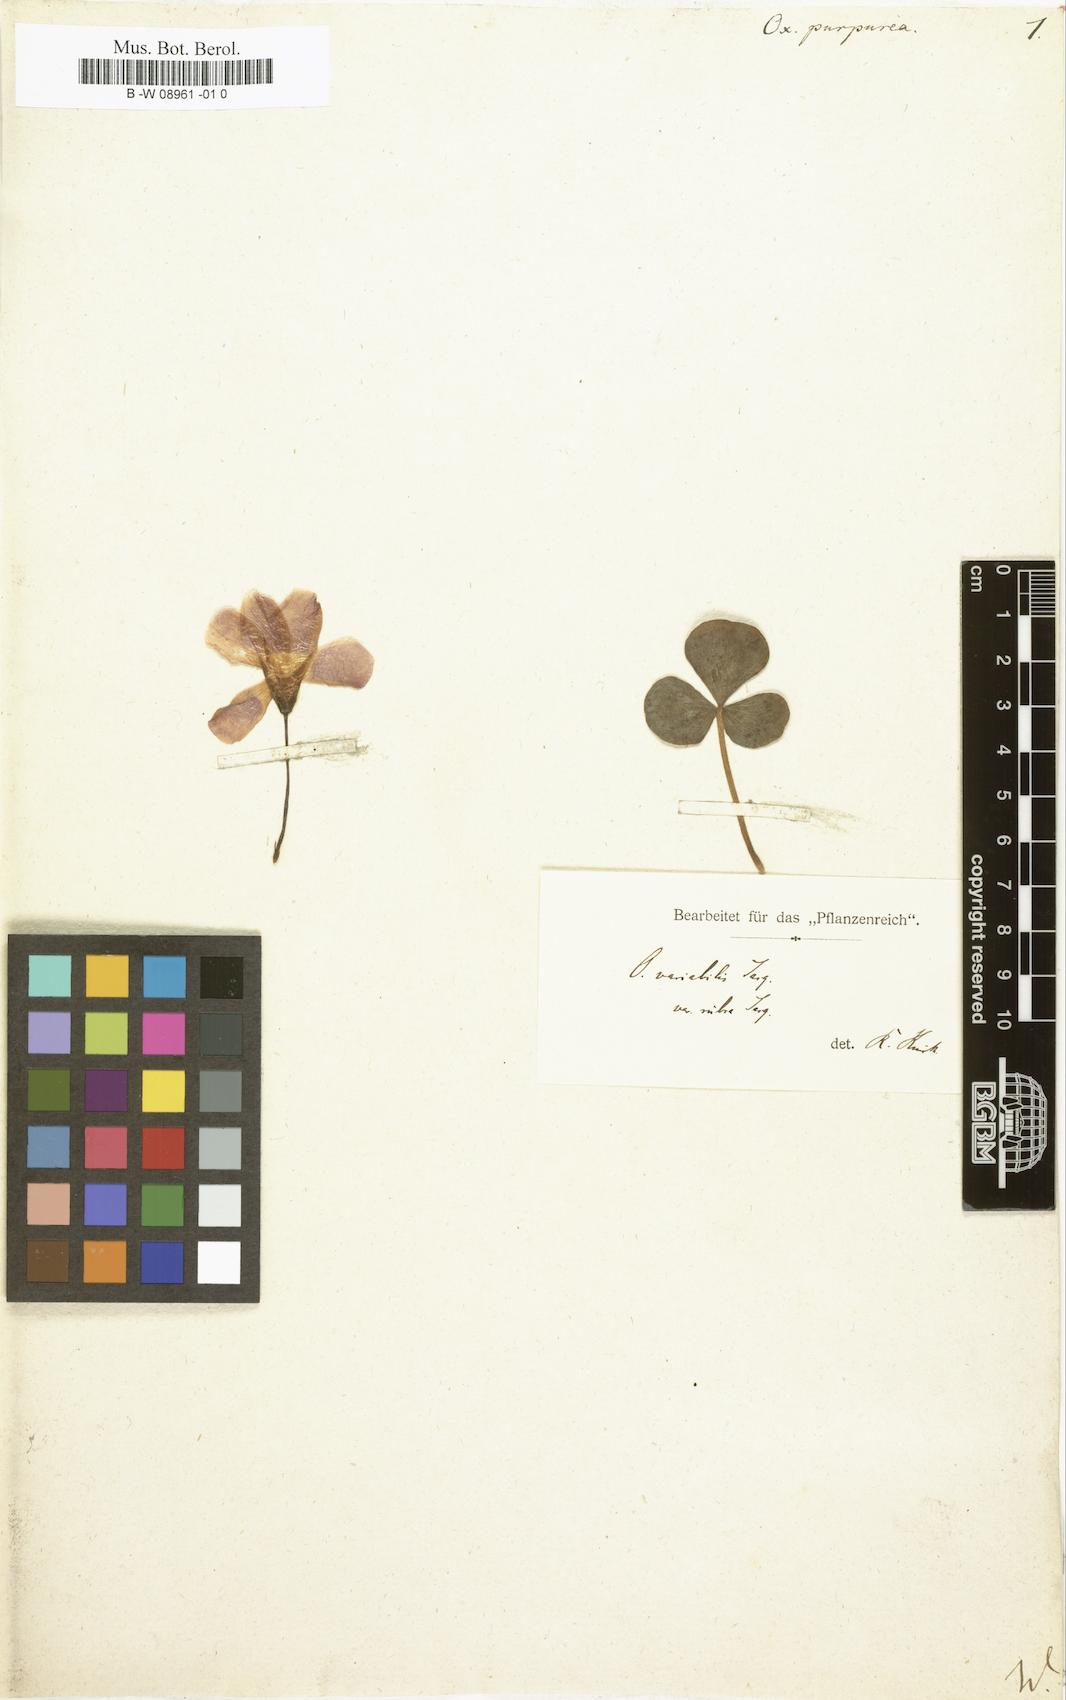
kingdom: Plantae
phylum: Tracheophyta
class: Magnoliopsida
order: Oxalidales
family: Oxalidaceae
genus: Oxalis
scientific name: Oxalis purpurea
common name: Purple woodsorrel
